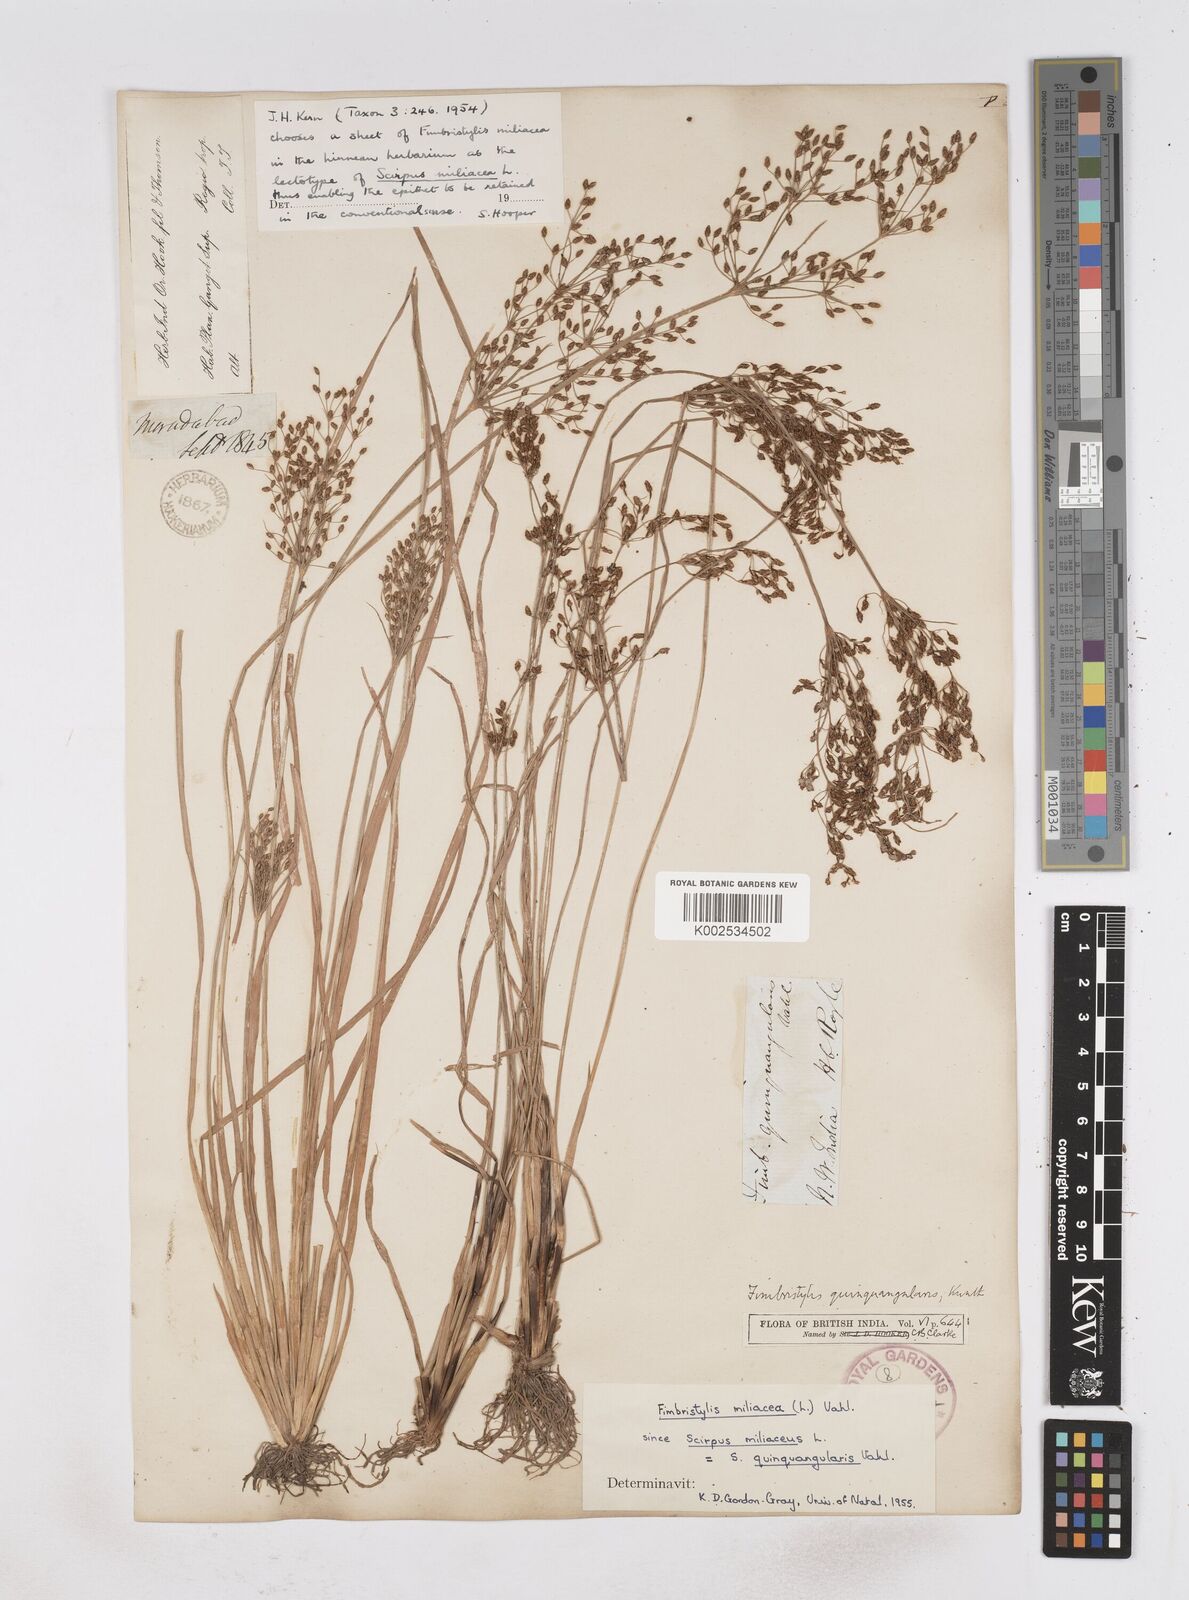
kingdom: Plantae
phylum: Tracheophyta
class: Liliopsida
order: Poales
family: Cyperaceae
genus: Fimbristylis
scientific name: Fimbristylis quinquangularis
